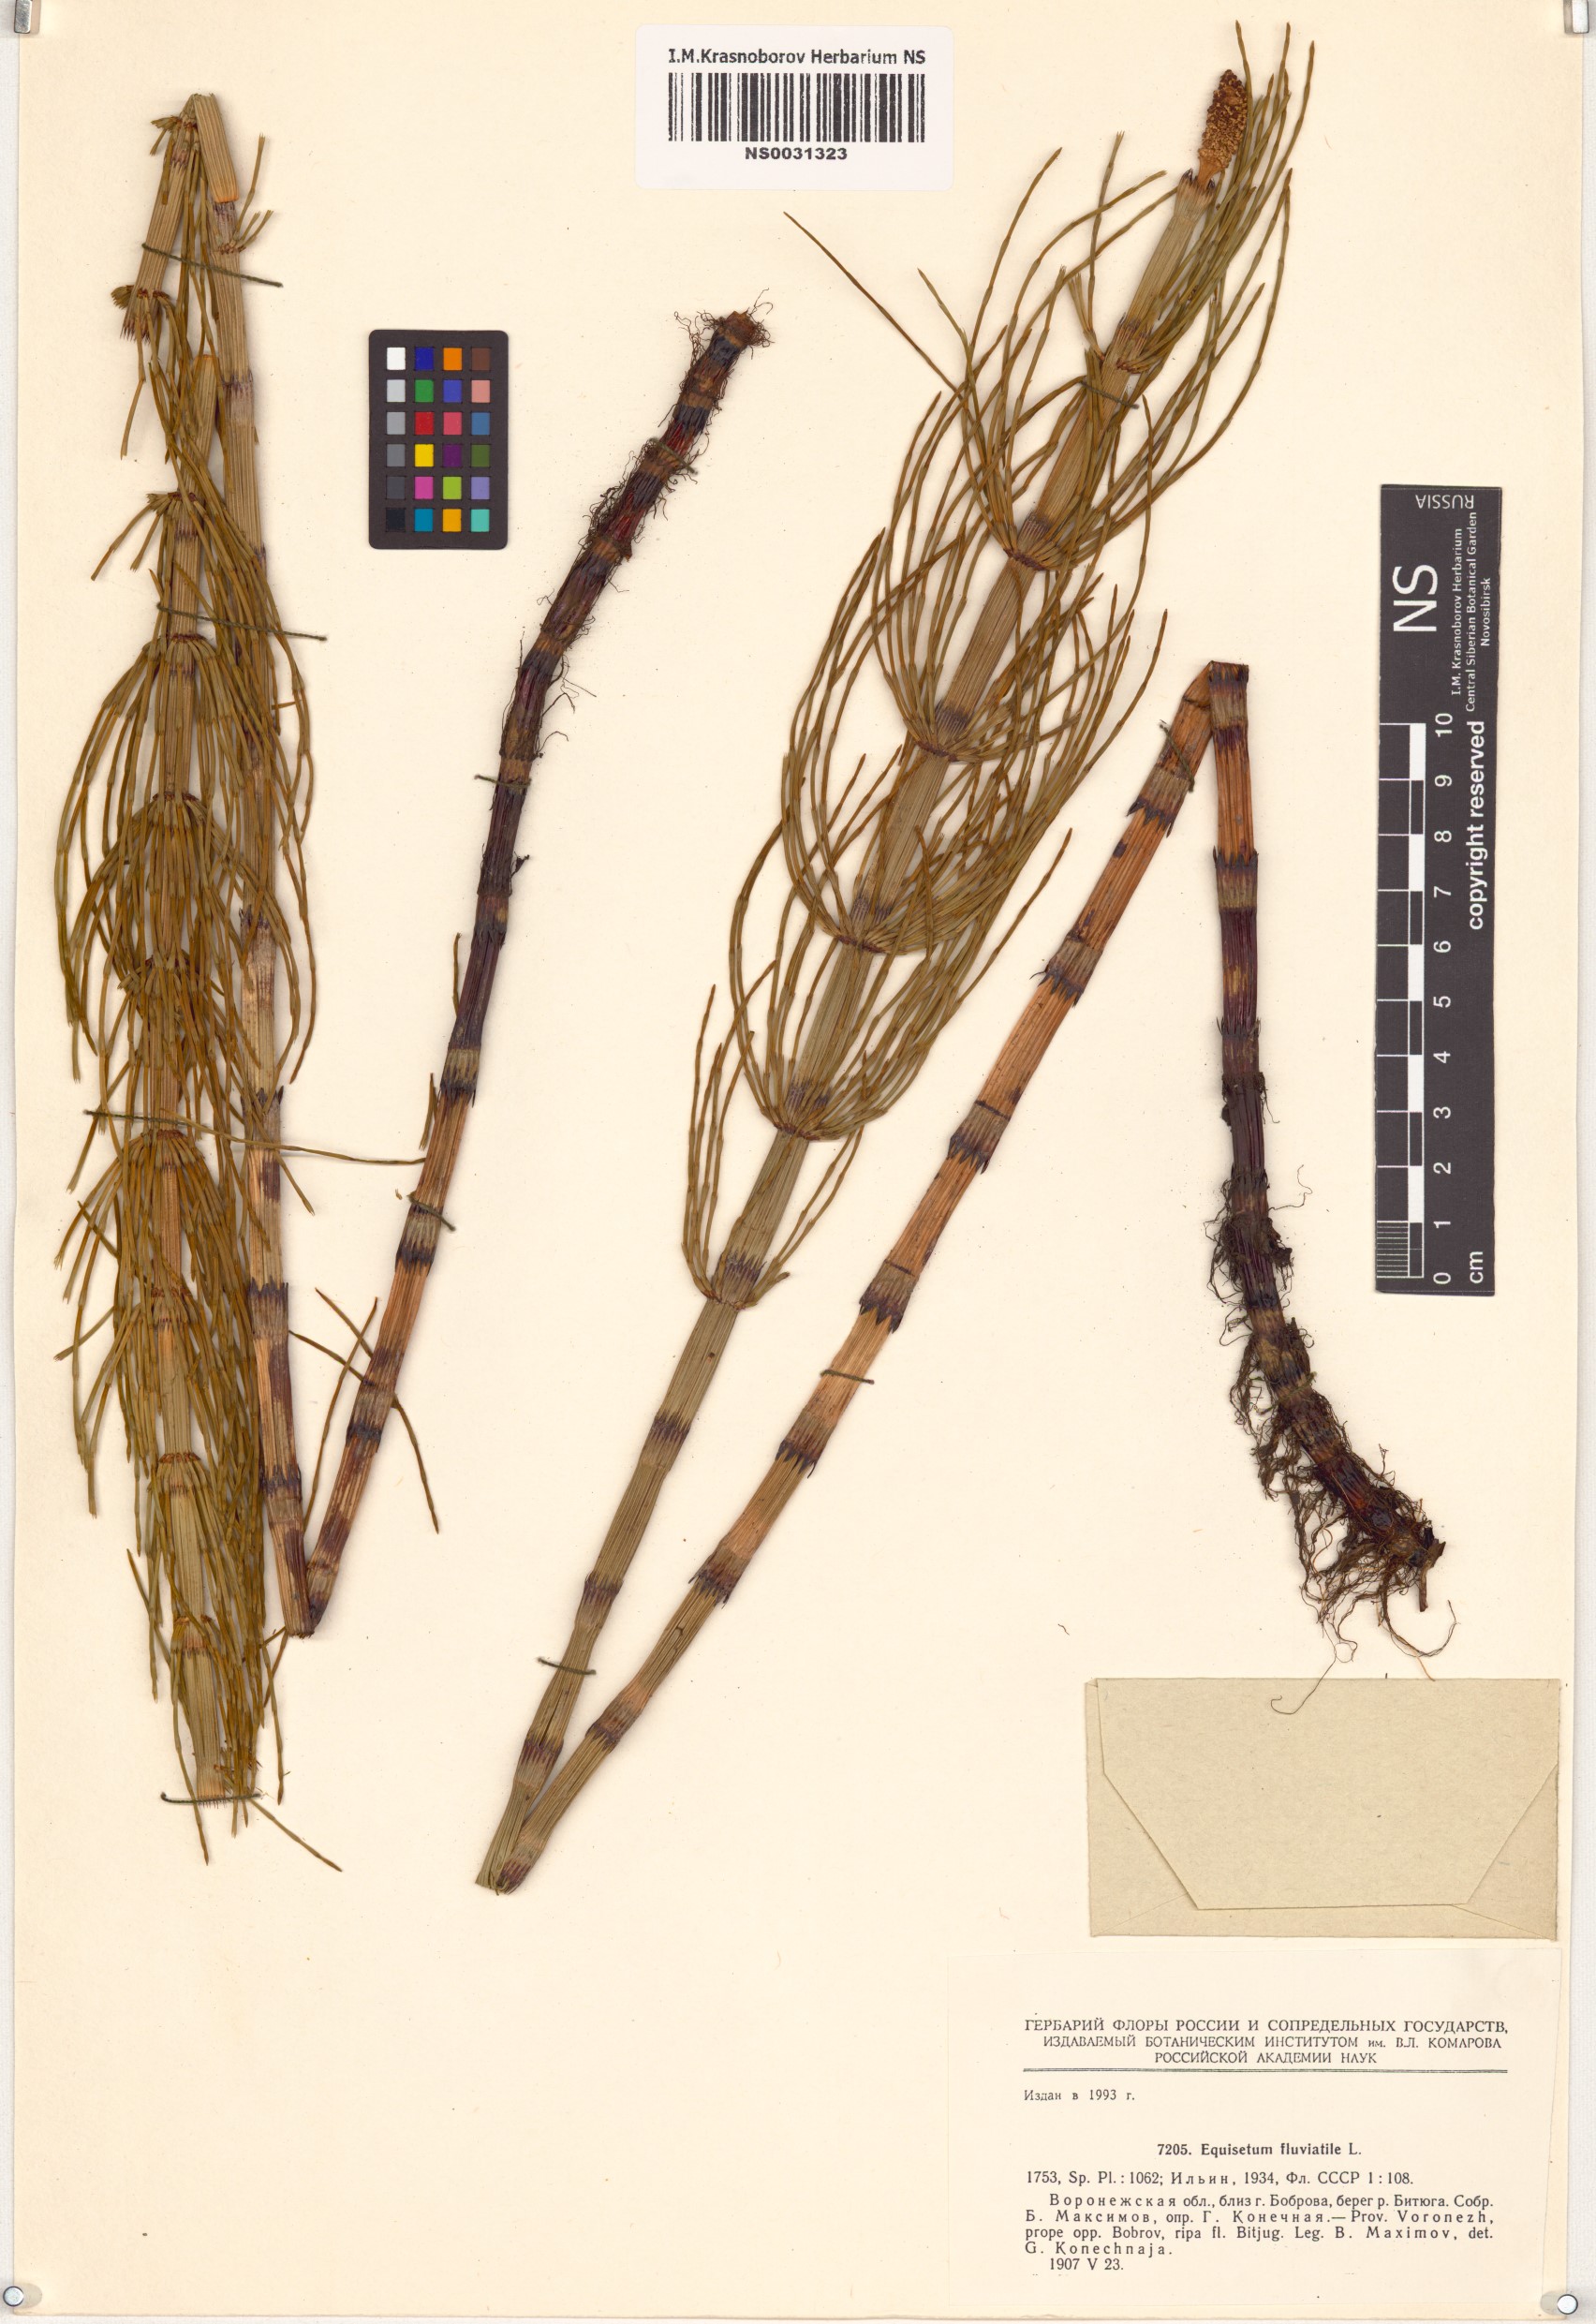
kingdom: Plantae
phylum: Tracheophyta
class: Polypodiopsida
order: Equisetales
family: Equisetaceae
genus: Equisetum
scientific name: Equisetum fluviatile
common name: Water horsetail
